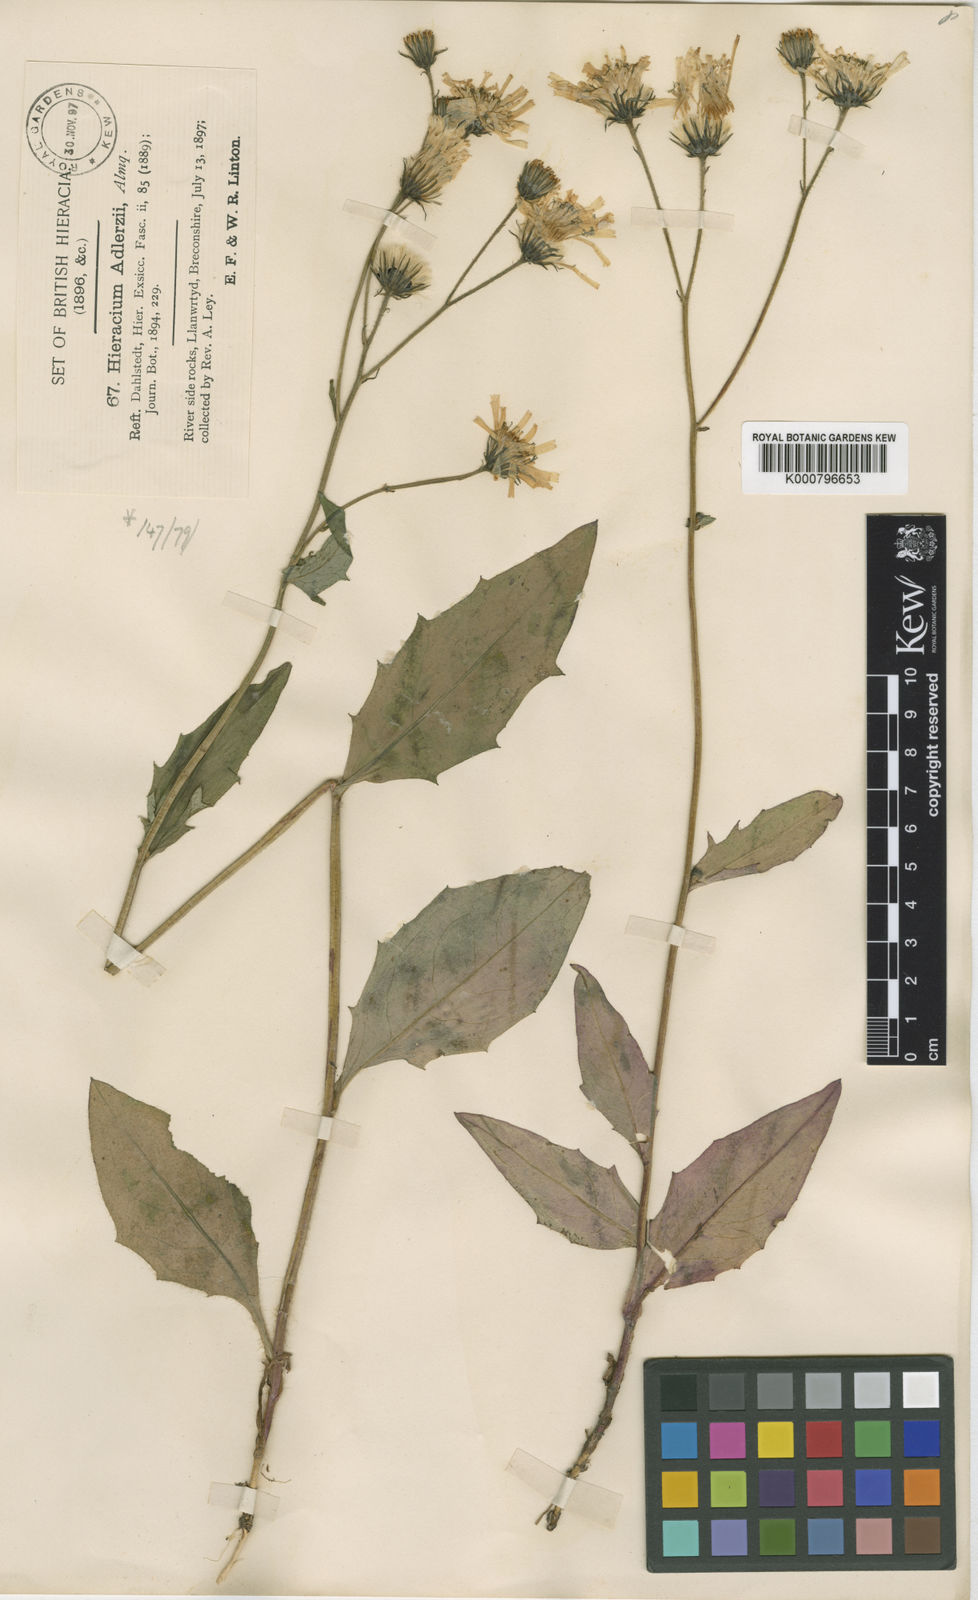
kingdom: Plantae
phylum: Tracheophyta
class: Magnoliopsida
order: Asterales
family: Asteraceae
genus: Hieracium
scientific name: Hieracium subminutidens
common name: Llanwrtyd hawkweed
